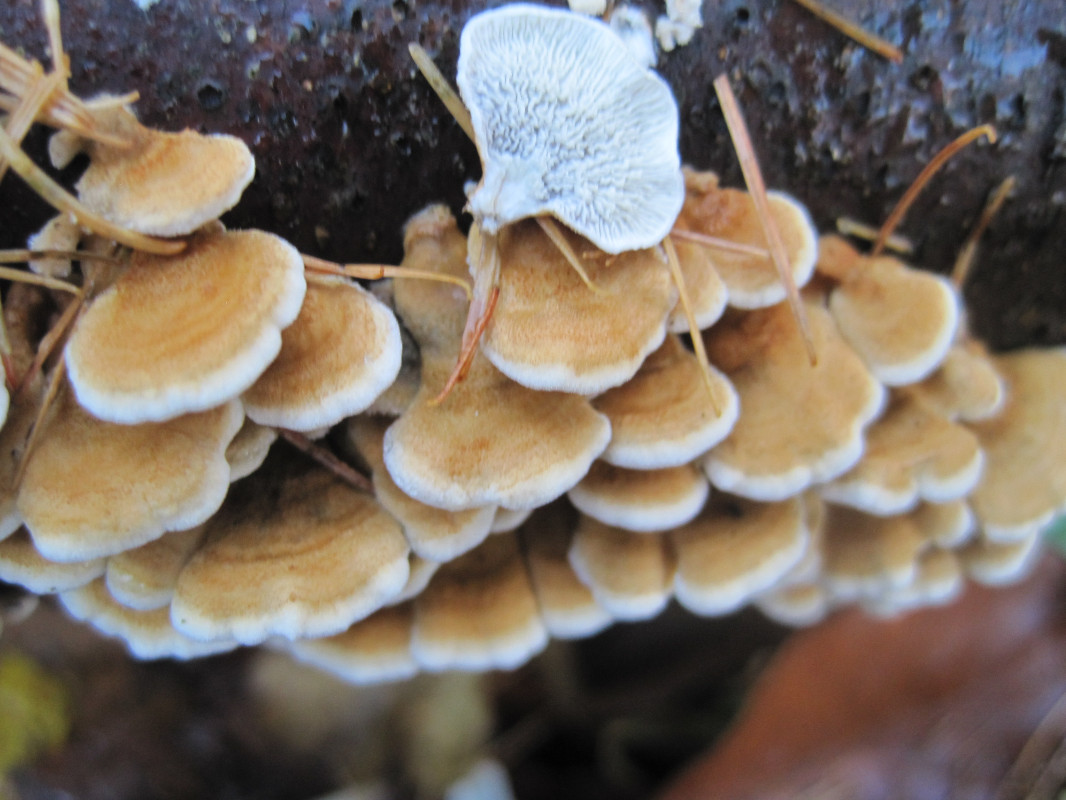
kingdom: Fungi
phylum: Basidiomycota
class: Agaricomycetes
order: Amylocorticiales
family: Amylocorticiaceae
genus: Plicaturopsis
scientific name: Plicaturopsis crispa
